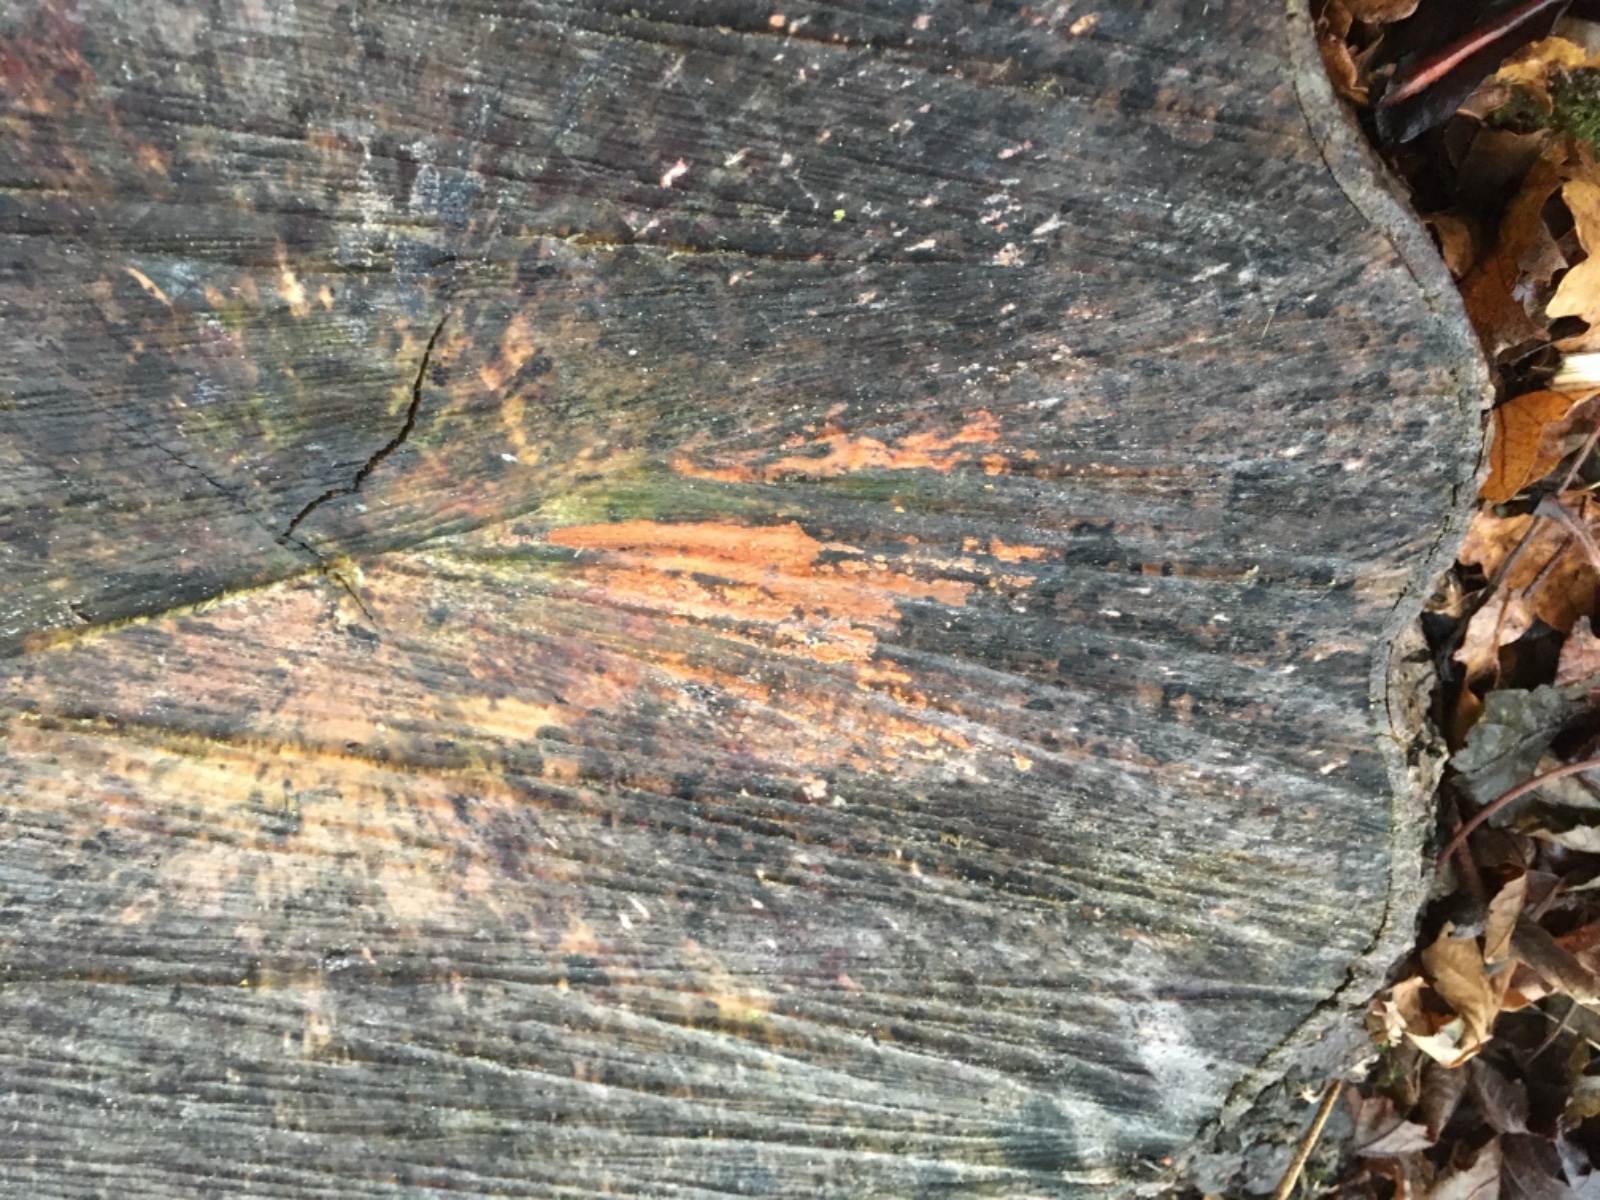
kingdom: Fungi
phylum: Basidiomycota
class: Agaricomycetes
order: Russulales
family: Peniophoraceae
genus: Peniophora
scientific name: Peniophora incarnata
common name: laksefarvet voksskind
